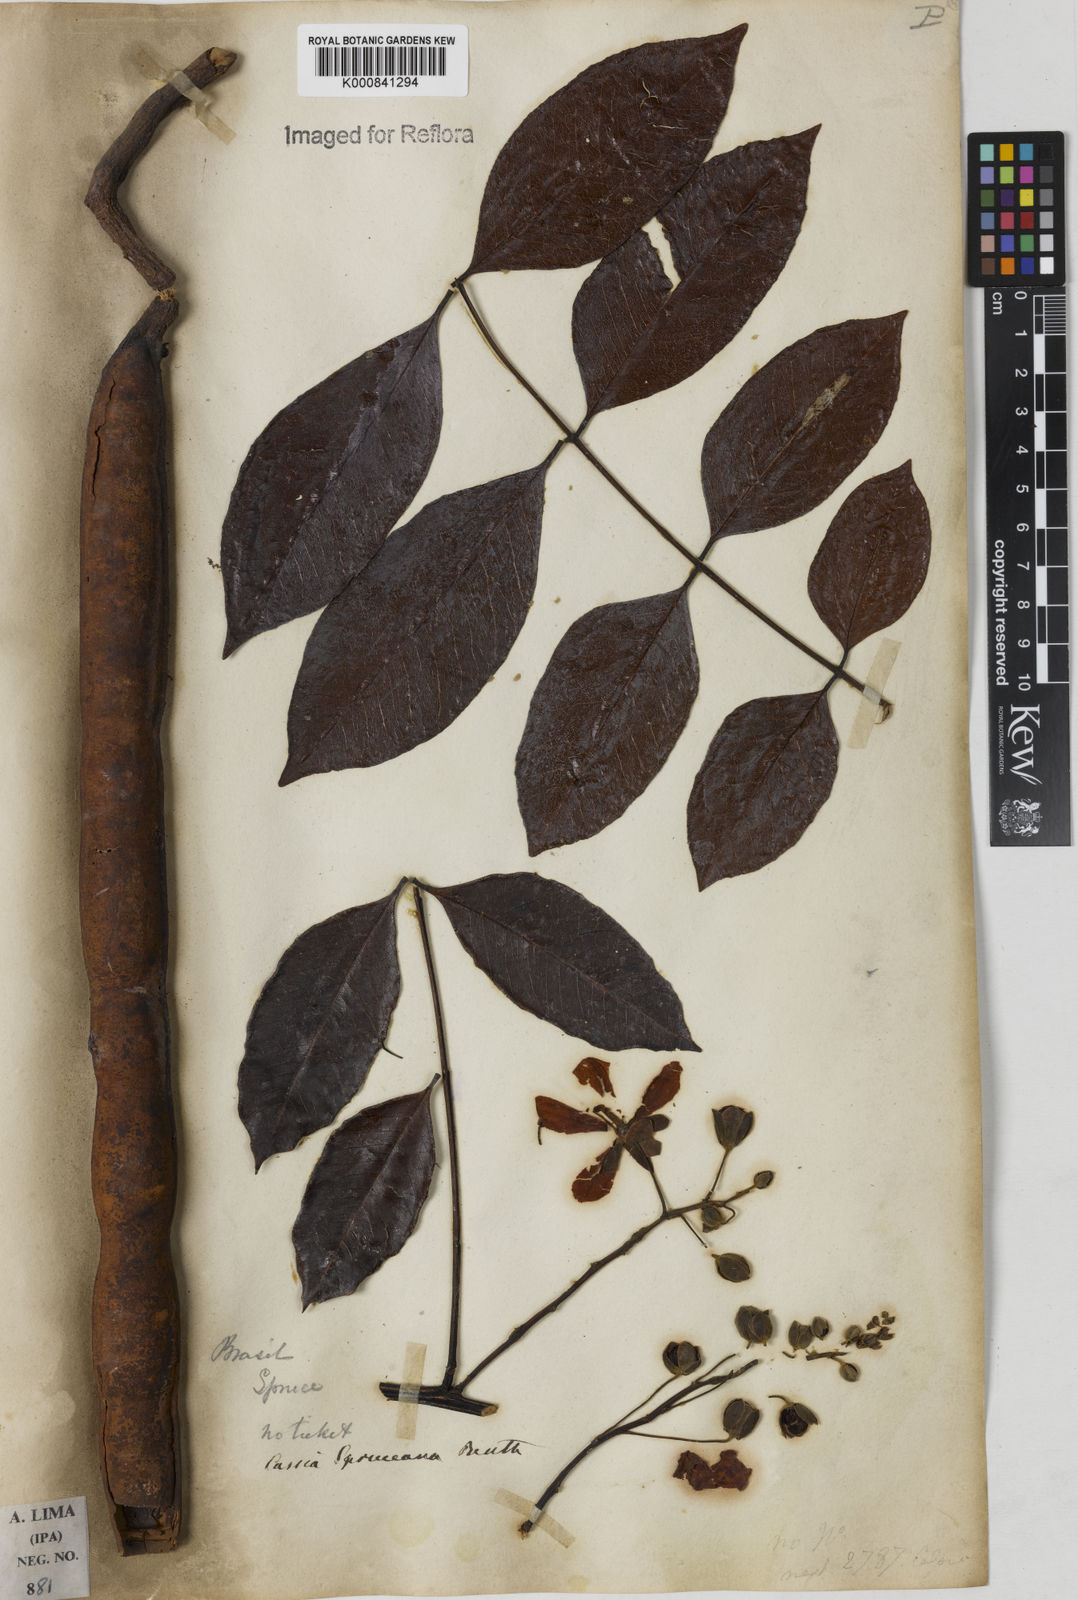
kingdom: Plantae
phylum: Tracheophyta
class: Magnoliopsida
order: Fabales
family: Fabaceae
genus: Cassia
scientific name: Cassia spruceana
